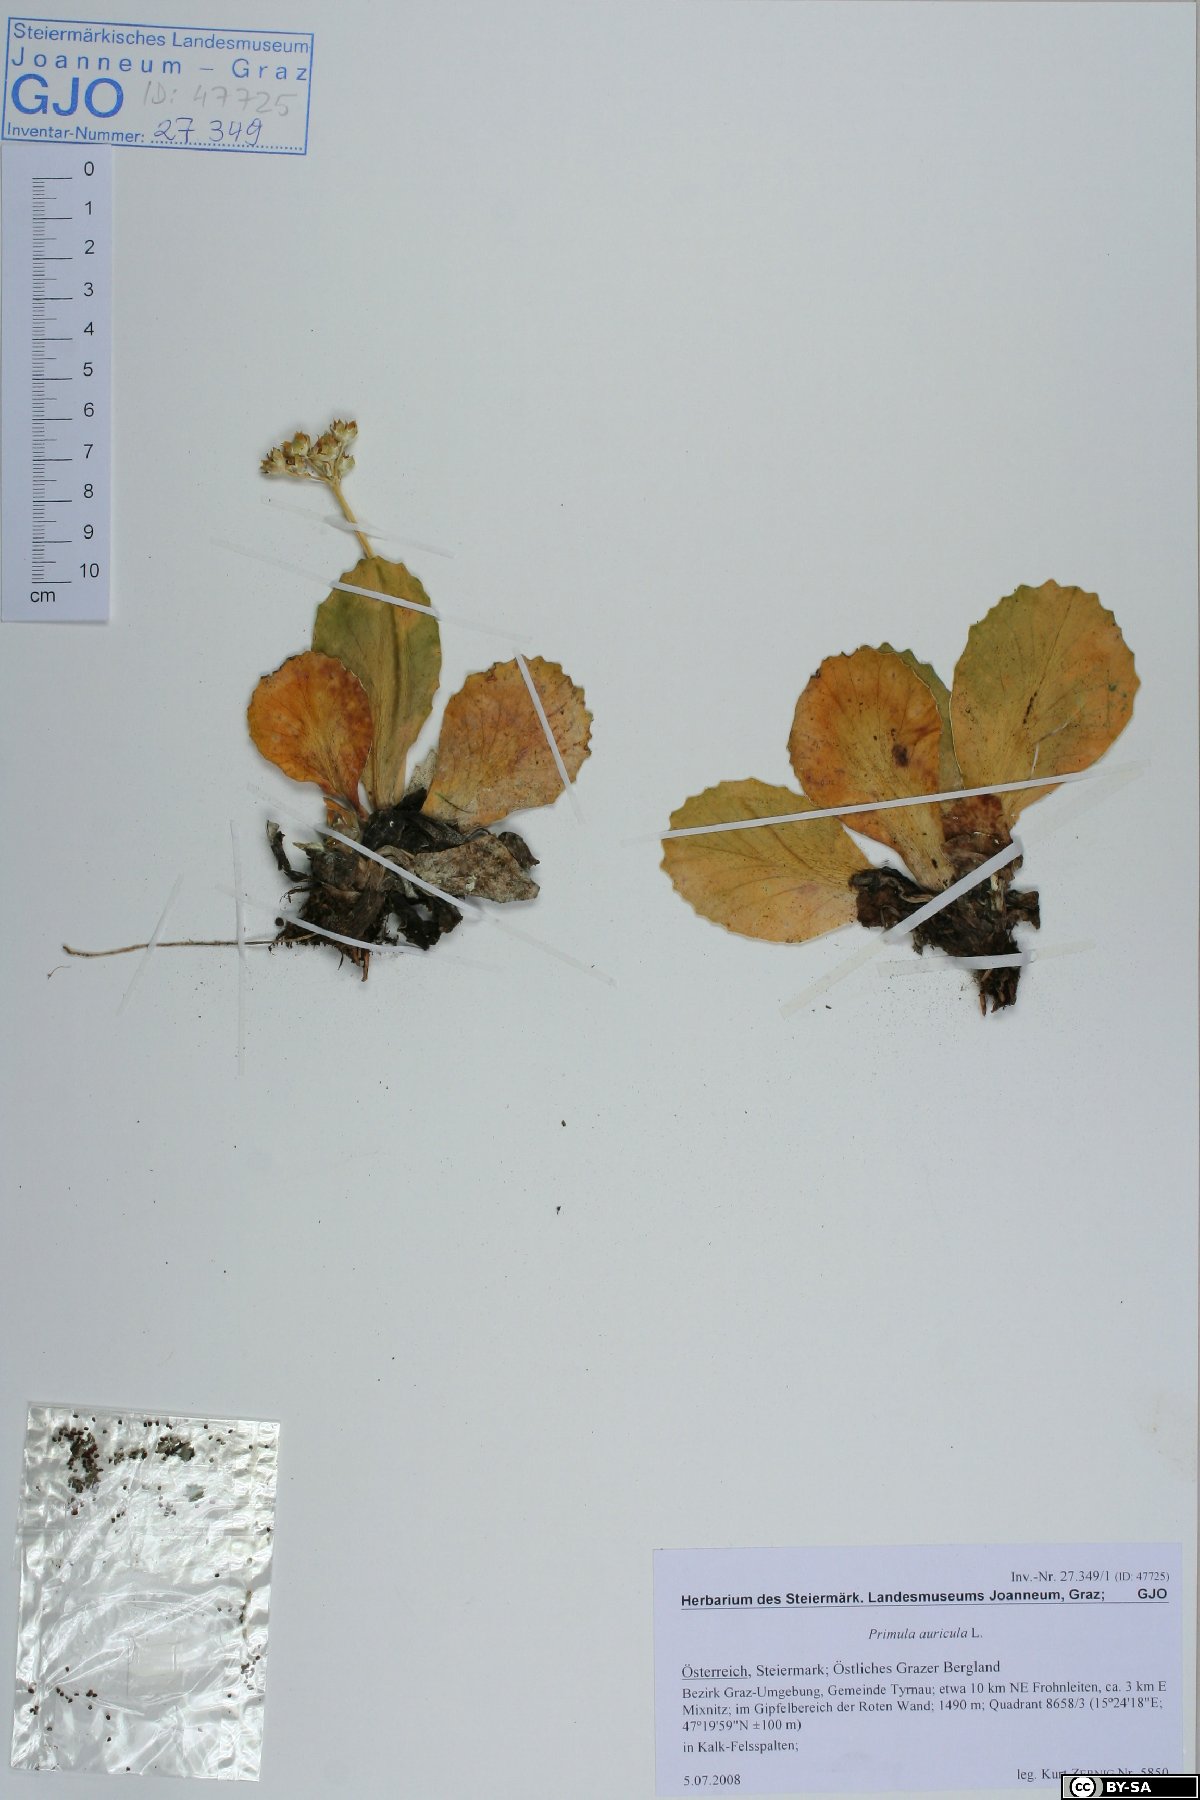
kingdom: Plantae
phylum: Tracheophyta
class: Magnoliopsida
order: Ericales
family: Primulaceae
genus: Primula
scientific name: Primula auricula
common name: Auricula
